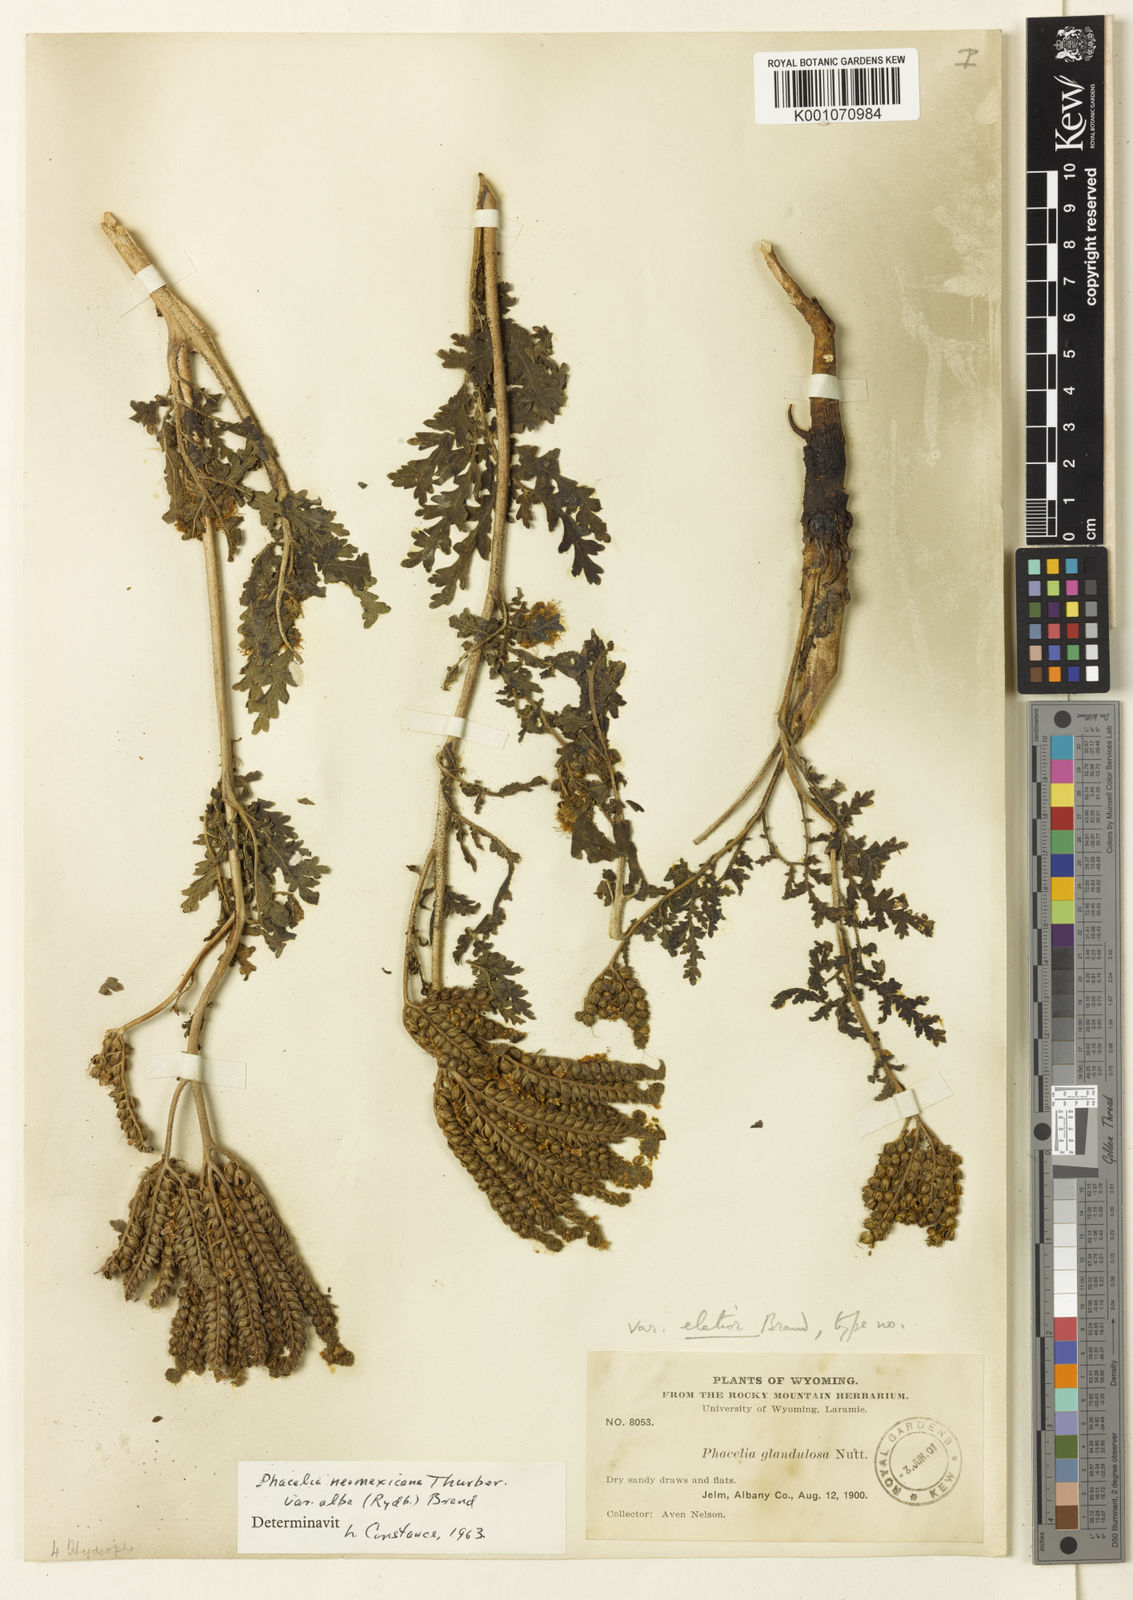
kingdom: Plantae
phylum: Tracheophyta
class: Magnoliopsida
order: Boraginales
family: Hydrophyllaceae
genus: Phacelia
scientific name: Phacelia
